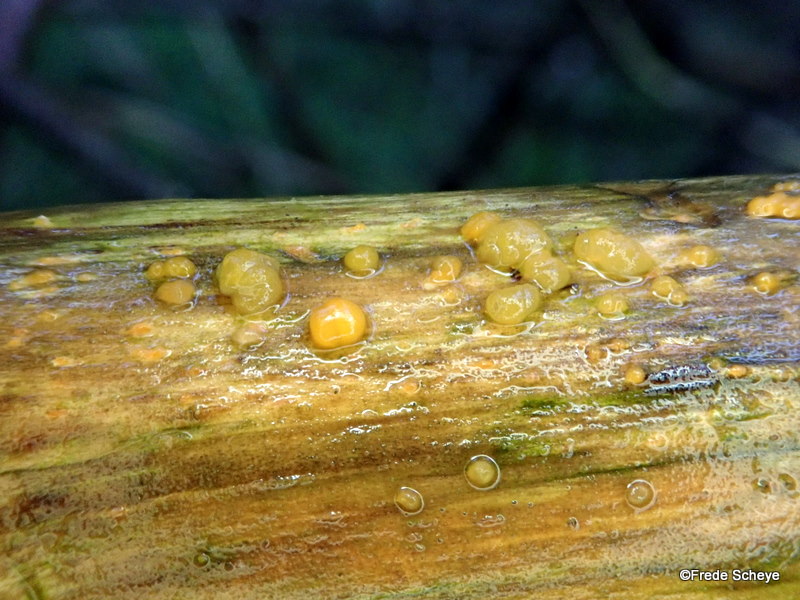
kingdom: Fungi
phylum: Basidiomycota
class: Dacrymycetes
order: Dacrymycetales
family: Dacrymycetaceae
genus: Dacrymyces
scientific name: Dacrymyces stillatus
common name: almindelig tåresvamp
